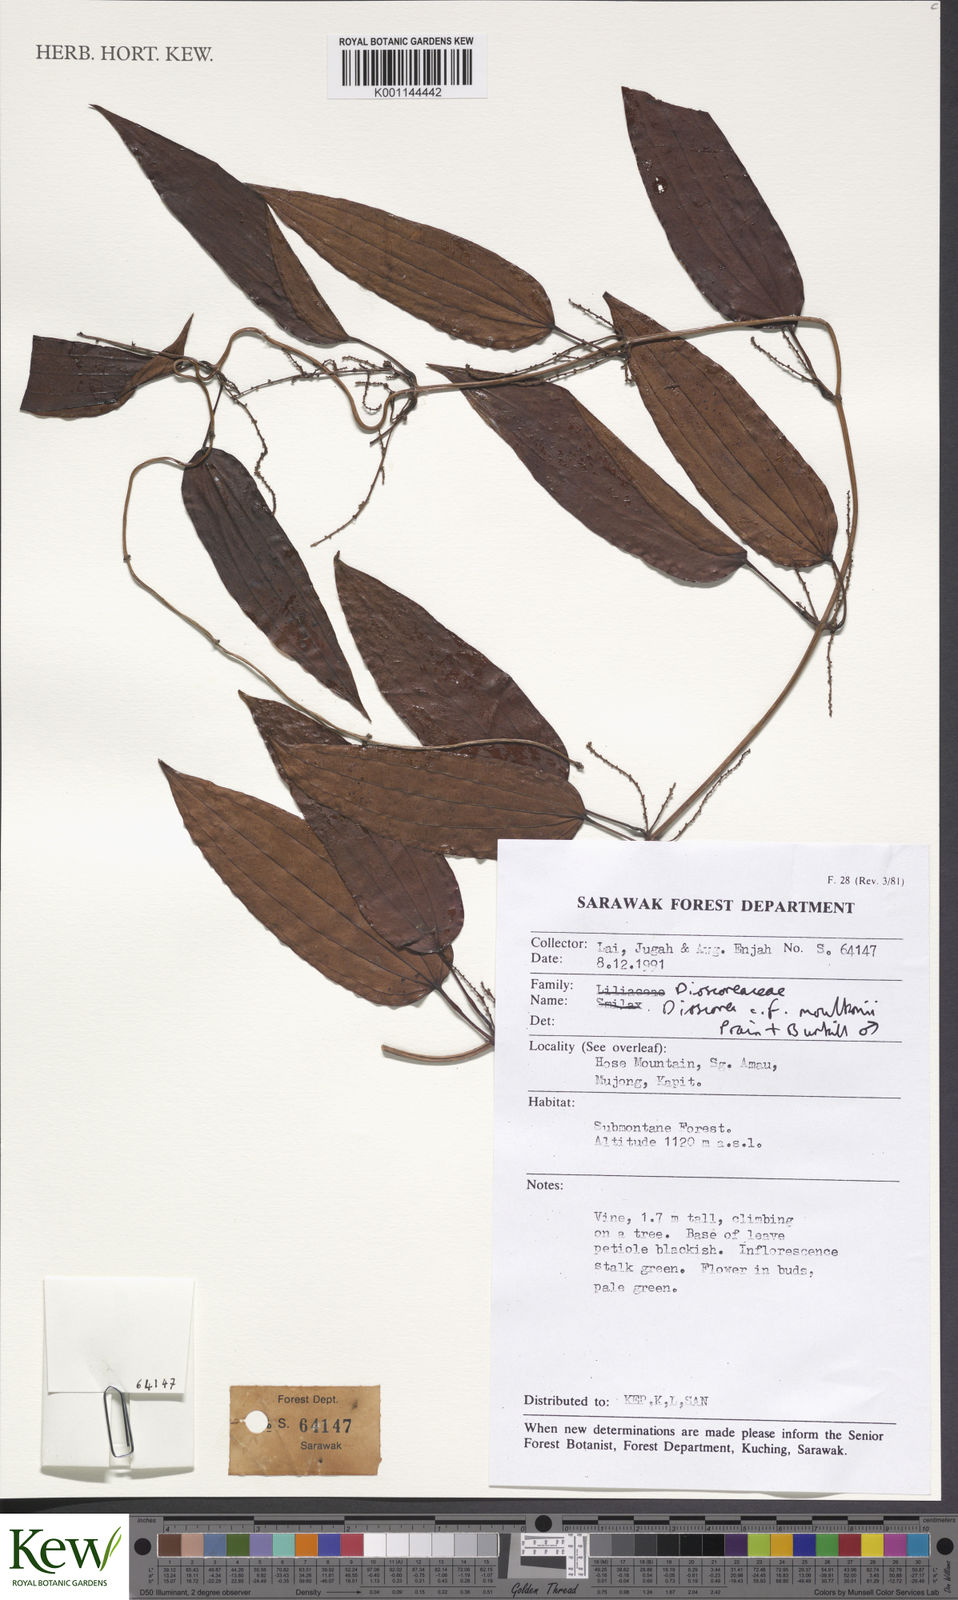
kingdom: Plantae
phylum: Tracheophyta
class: Liliopsida
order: Dioscoreales
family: Dioscoreaceae
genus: Dioscorea
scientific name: Dioscorea moultonii
